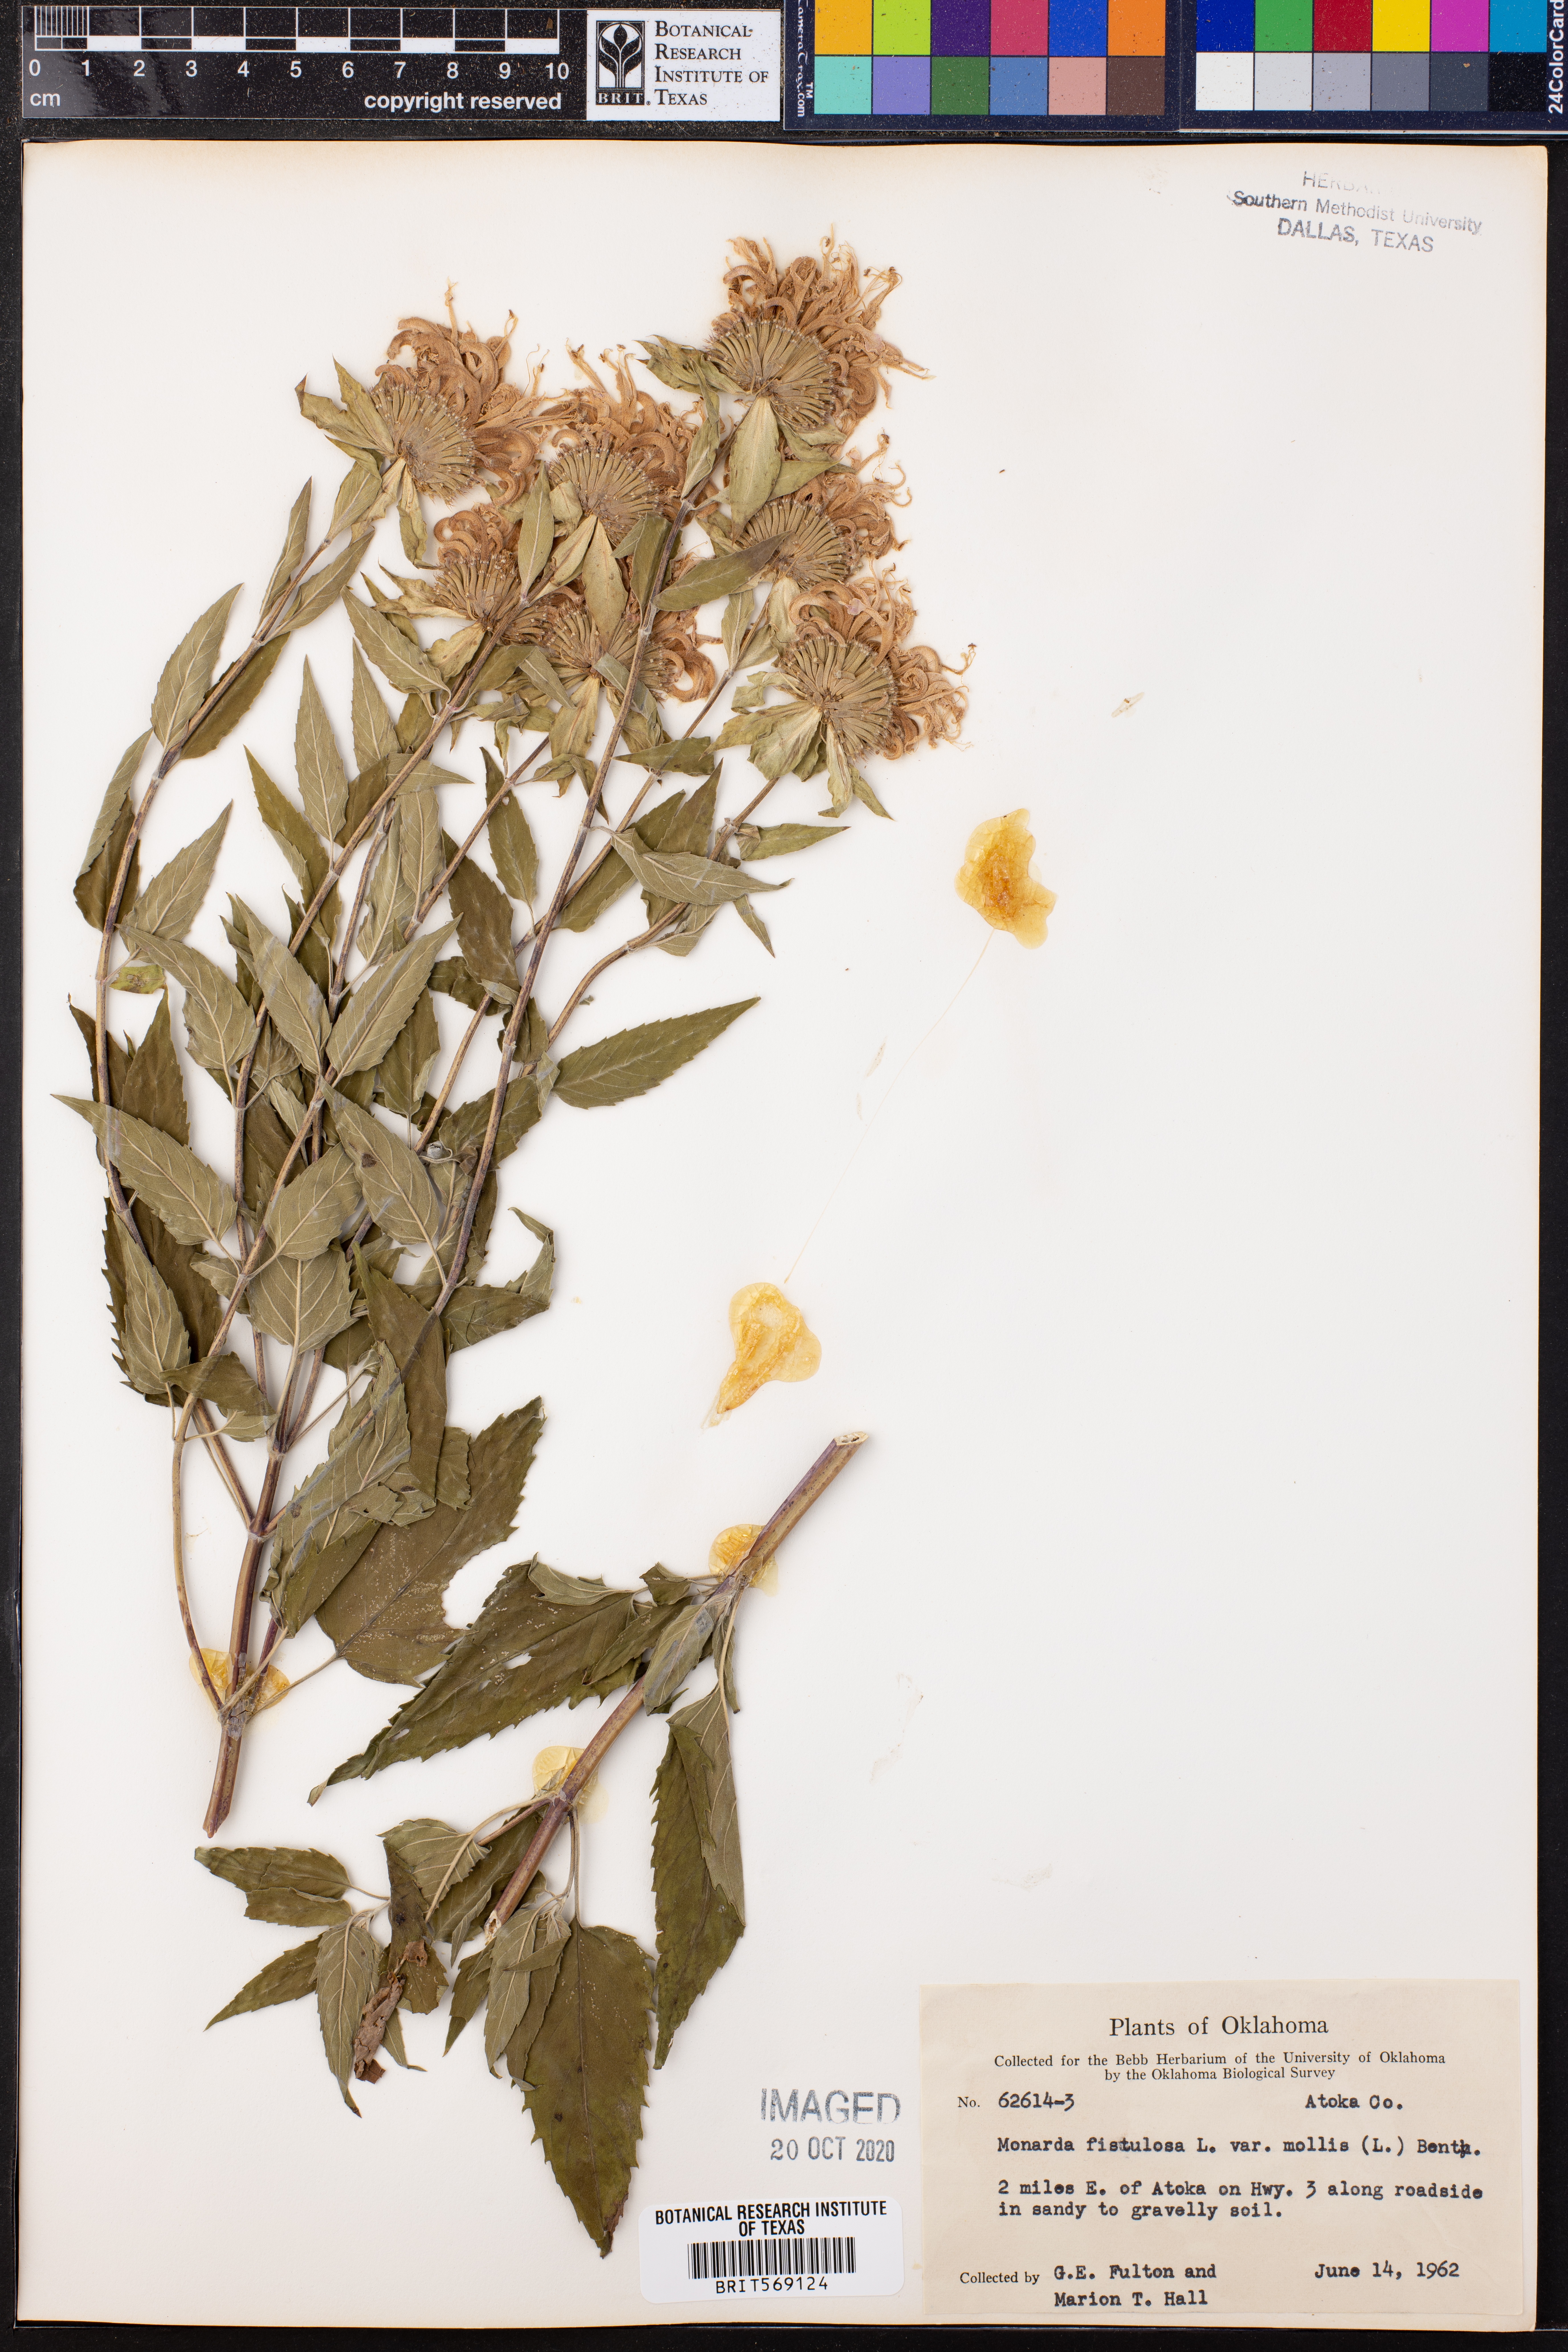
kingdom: Plantae
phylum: Tracheophyta
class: Magnoliopsida
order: Lamiales
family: Lamiaceae
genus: Monarda
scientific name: Monarda fistulosa
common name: Purple beebalm
